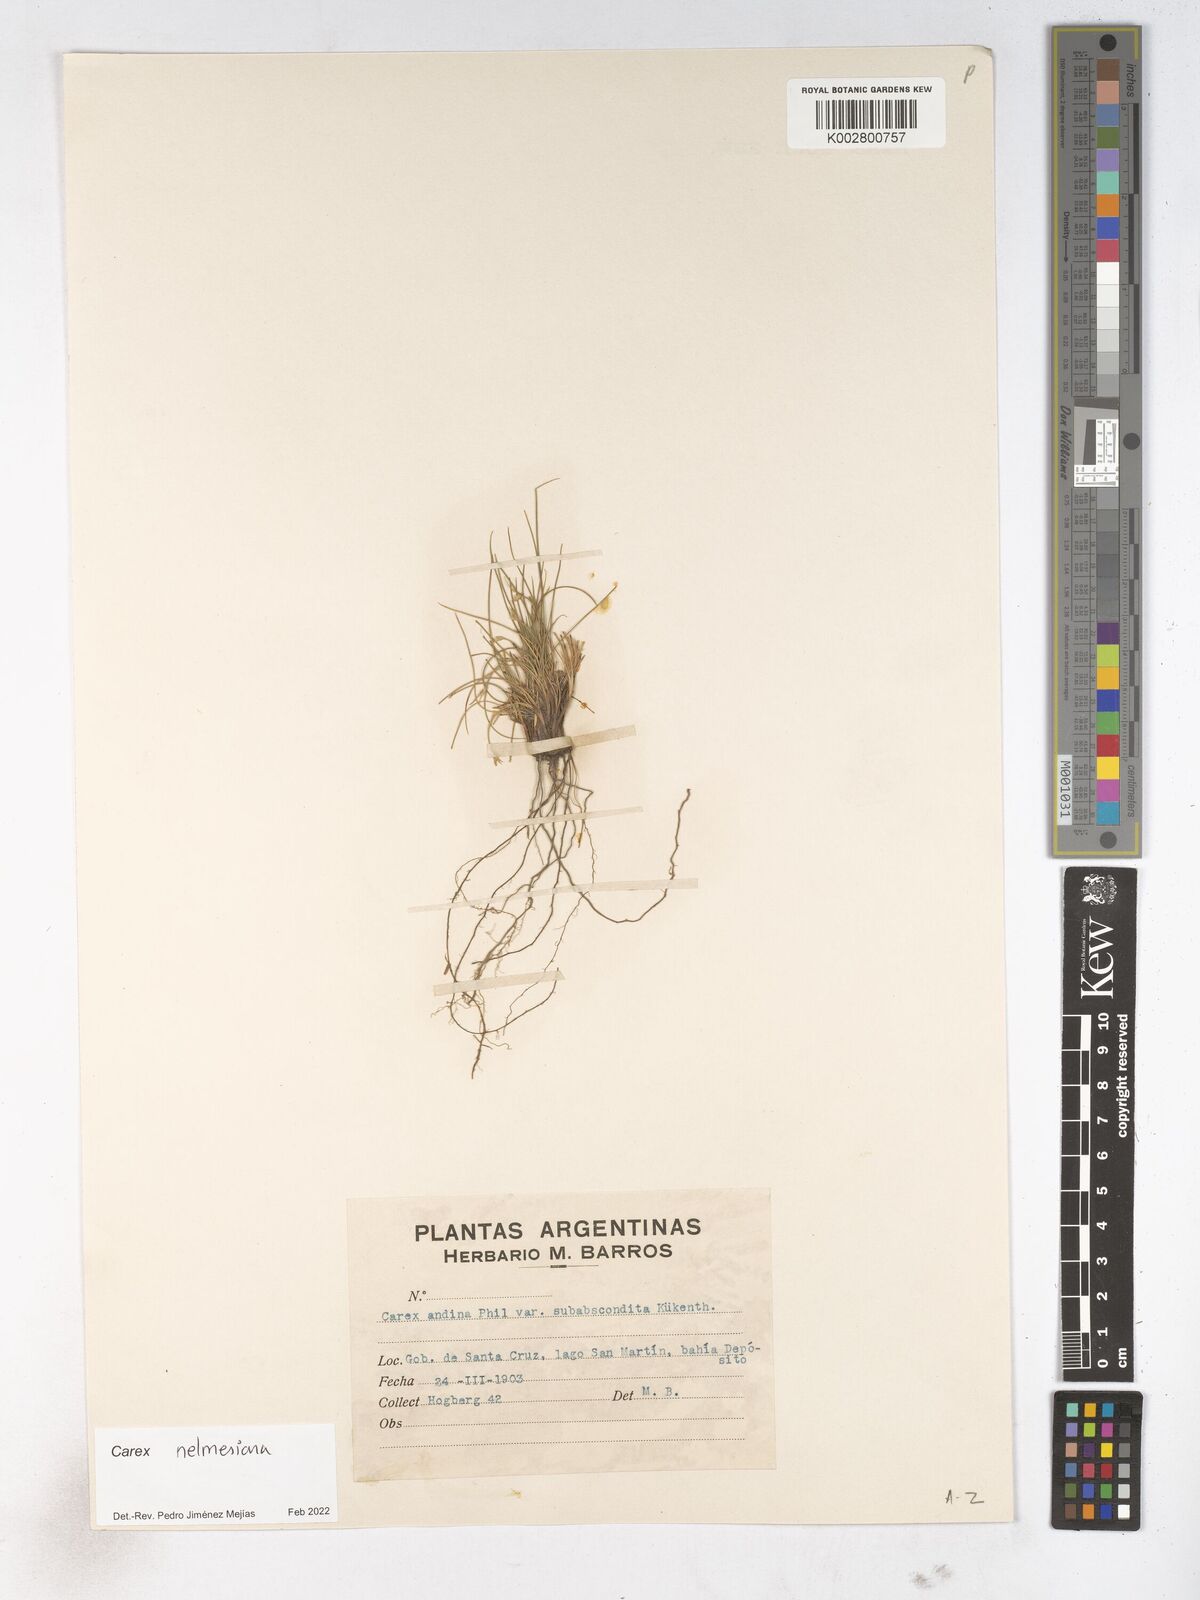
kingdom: Plantae
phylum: Tracheophyta
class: Liliopsida
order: Poales
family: Cyperaceae
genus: Carex
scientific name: Carex
